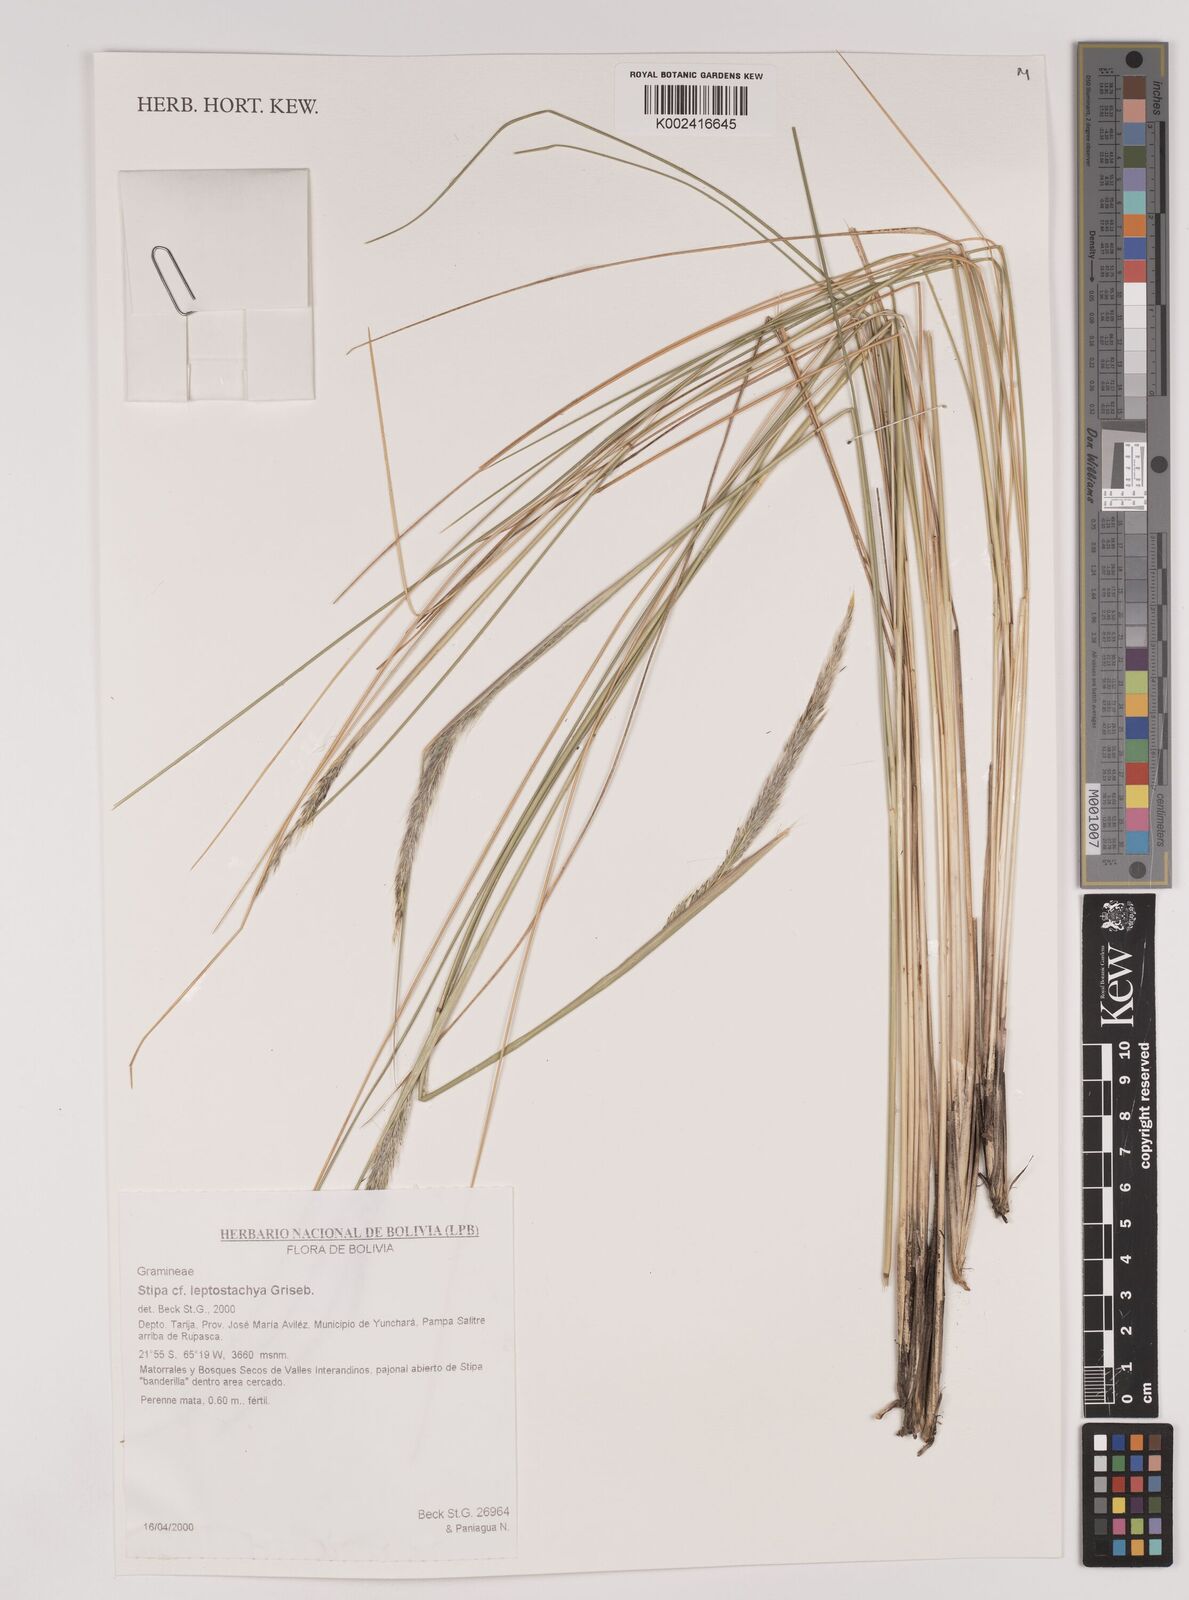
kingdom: Plantae
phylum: Tracheophyta
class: Liliopsida
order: Poales
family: Poaceae
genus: Jarava
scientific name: Jarava leptostachya
